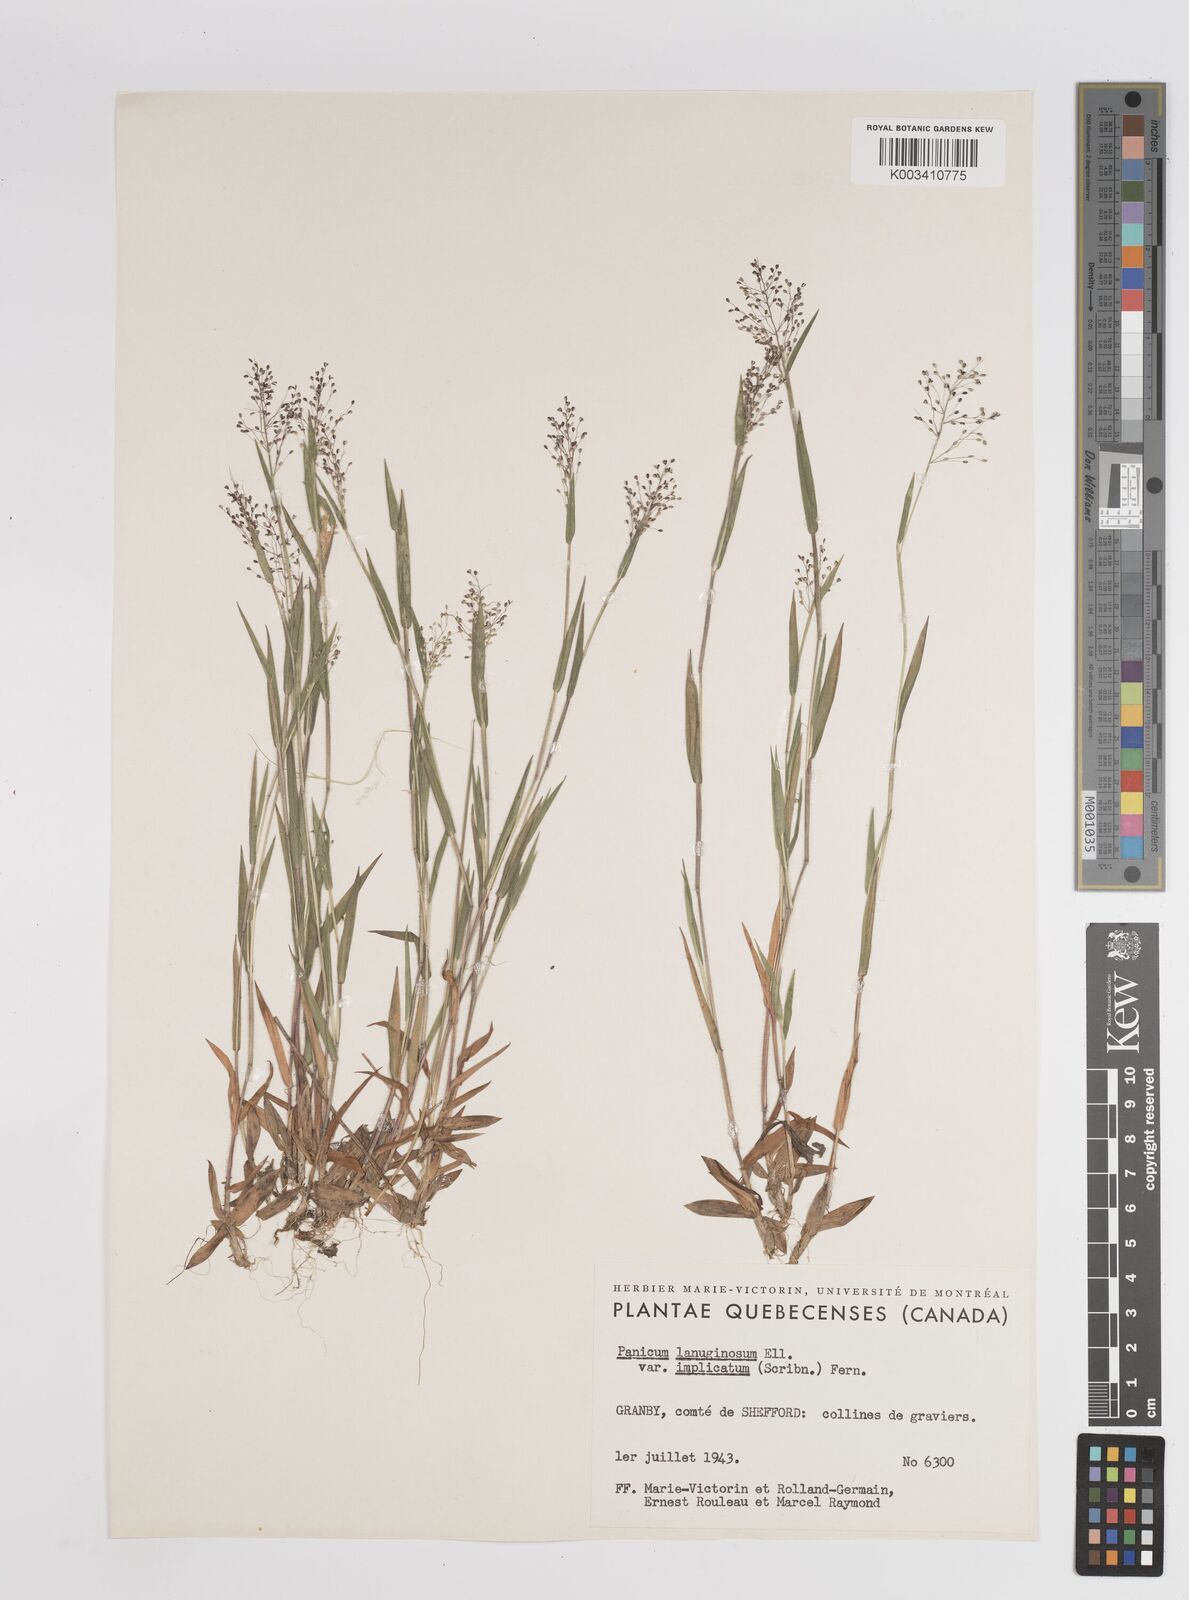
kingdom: Plantae
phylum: Tracheophyta
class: Liliopsida
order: Poales
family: Poaceae
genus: Dichanthelium
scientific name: Dichanthelium implicatum
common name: Slender-stemmed panicgrass
